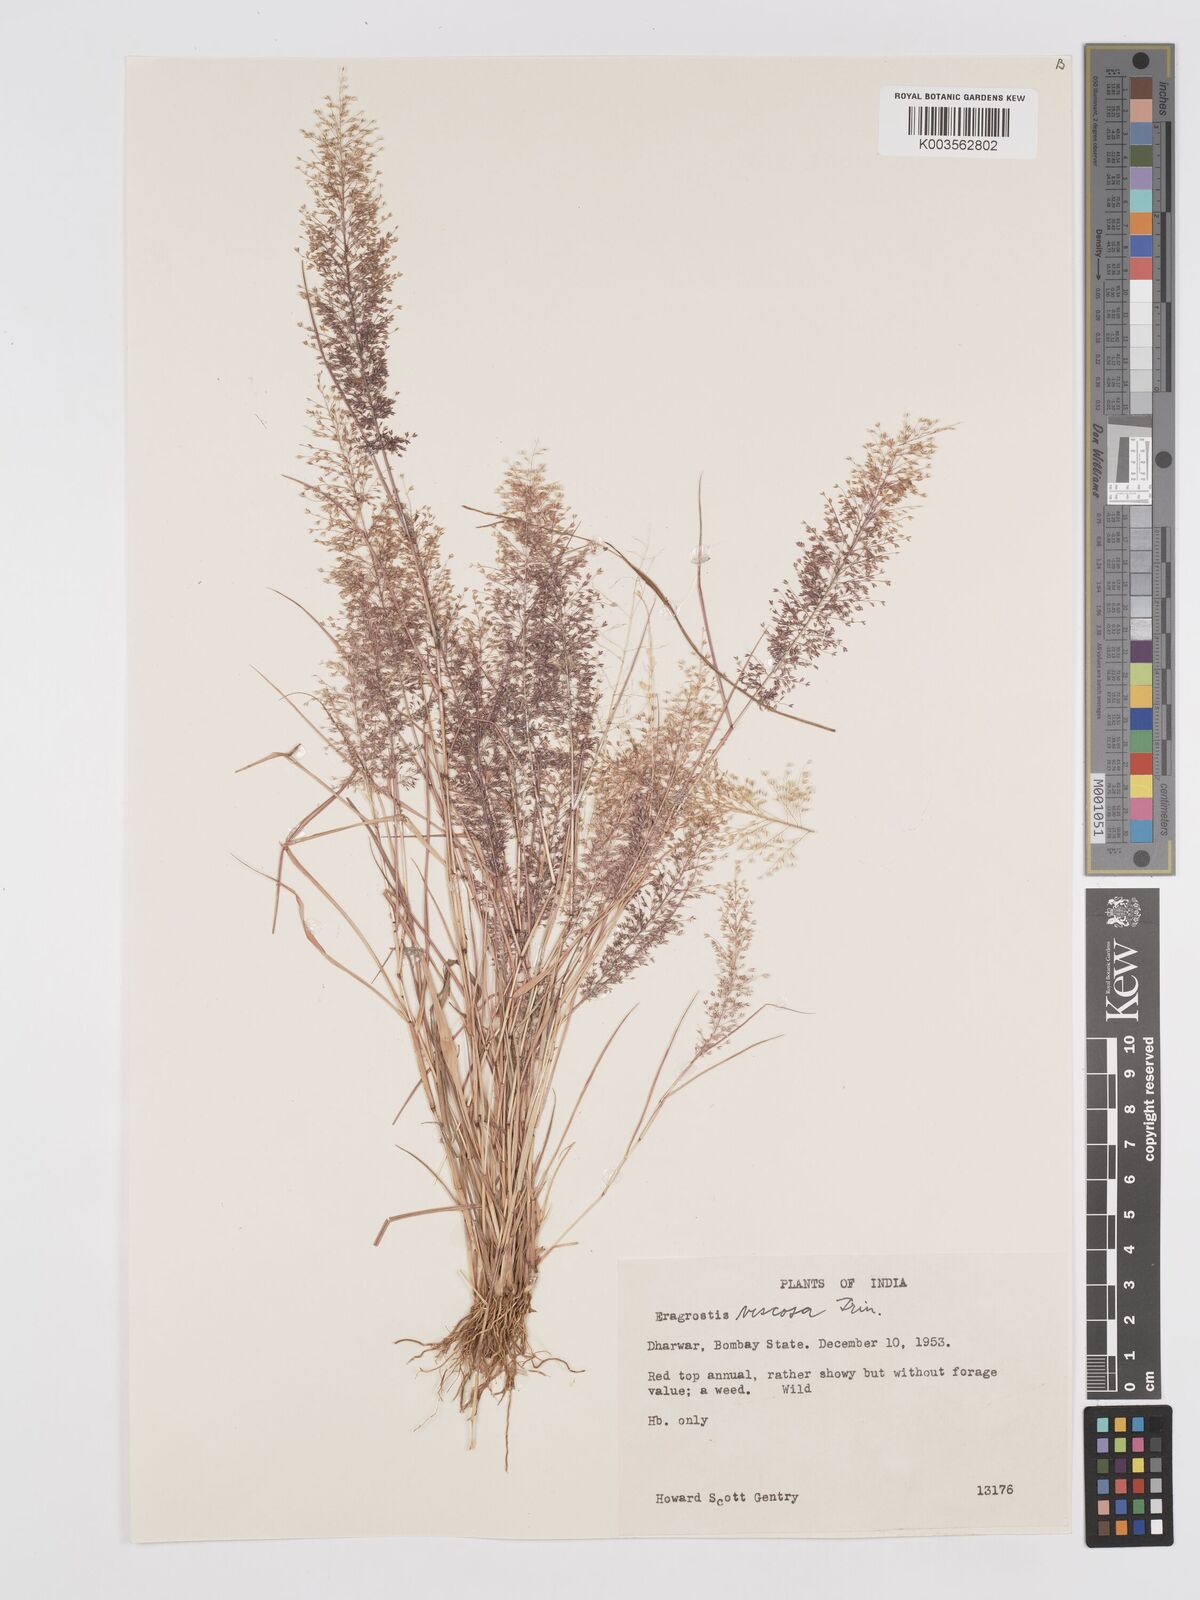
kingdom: Plantae
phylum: Tracheophyta
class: Liliopsida
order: Poales
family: Poaceae
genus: Eragrostis
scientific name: Eragrostis viscosa
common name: Sticky love grass
